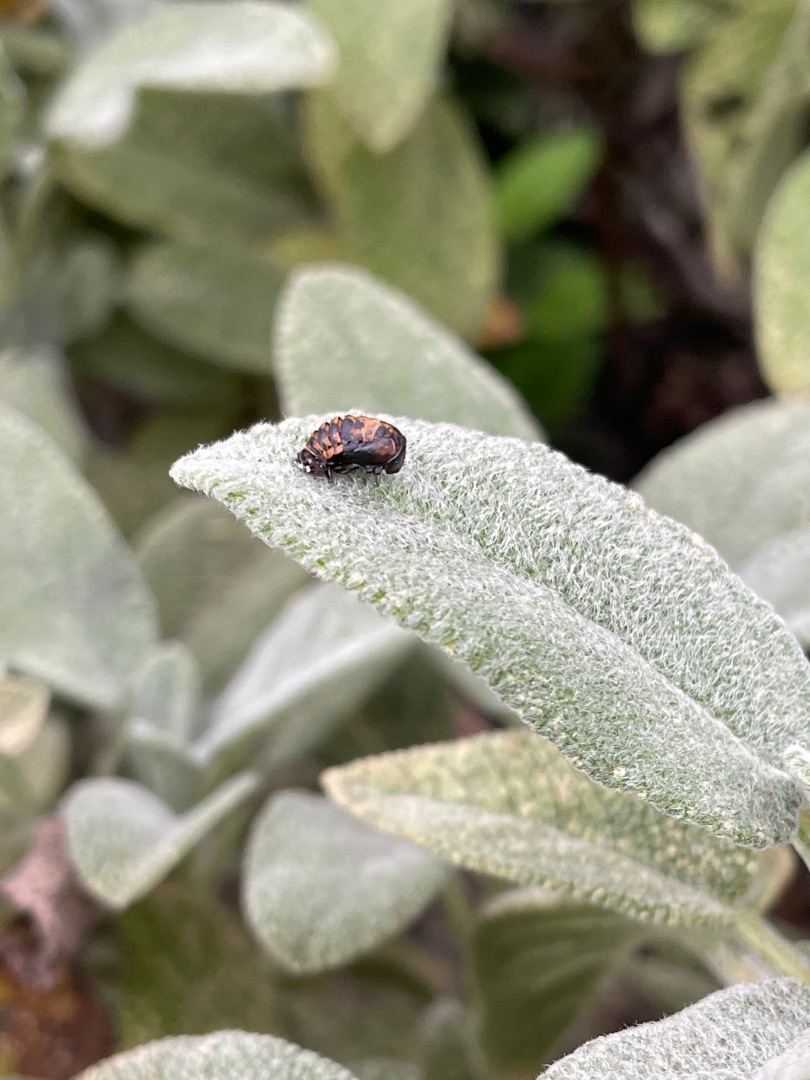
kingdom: Animalia
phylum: Arthropoda
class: Insecta
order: Coleoptera
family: Coccinellidae
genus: Harmonia
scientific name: Harmonia axyridis
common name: Harlekinmariehøne
